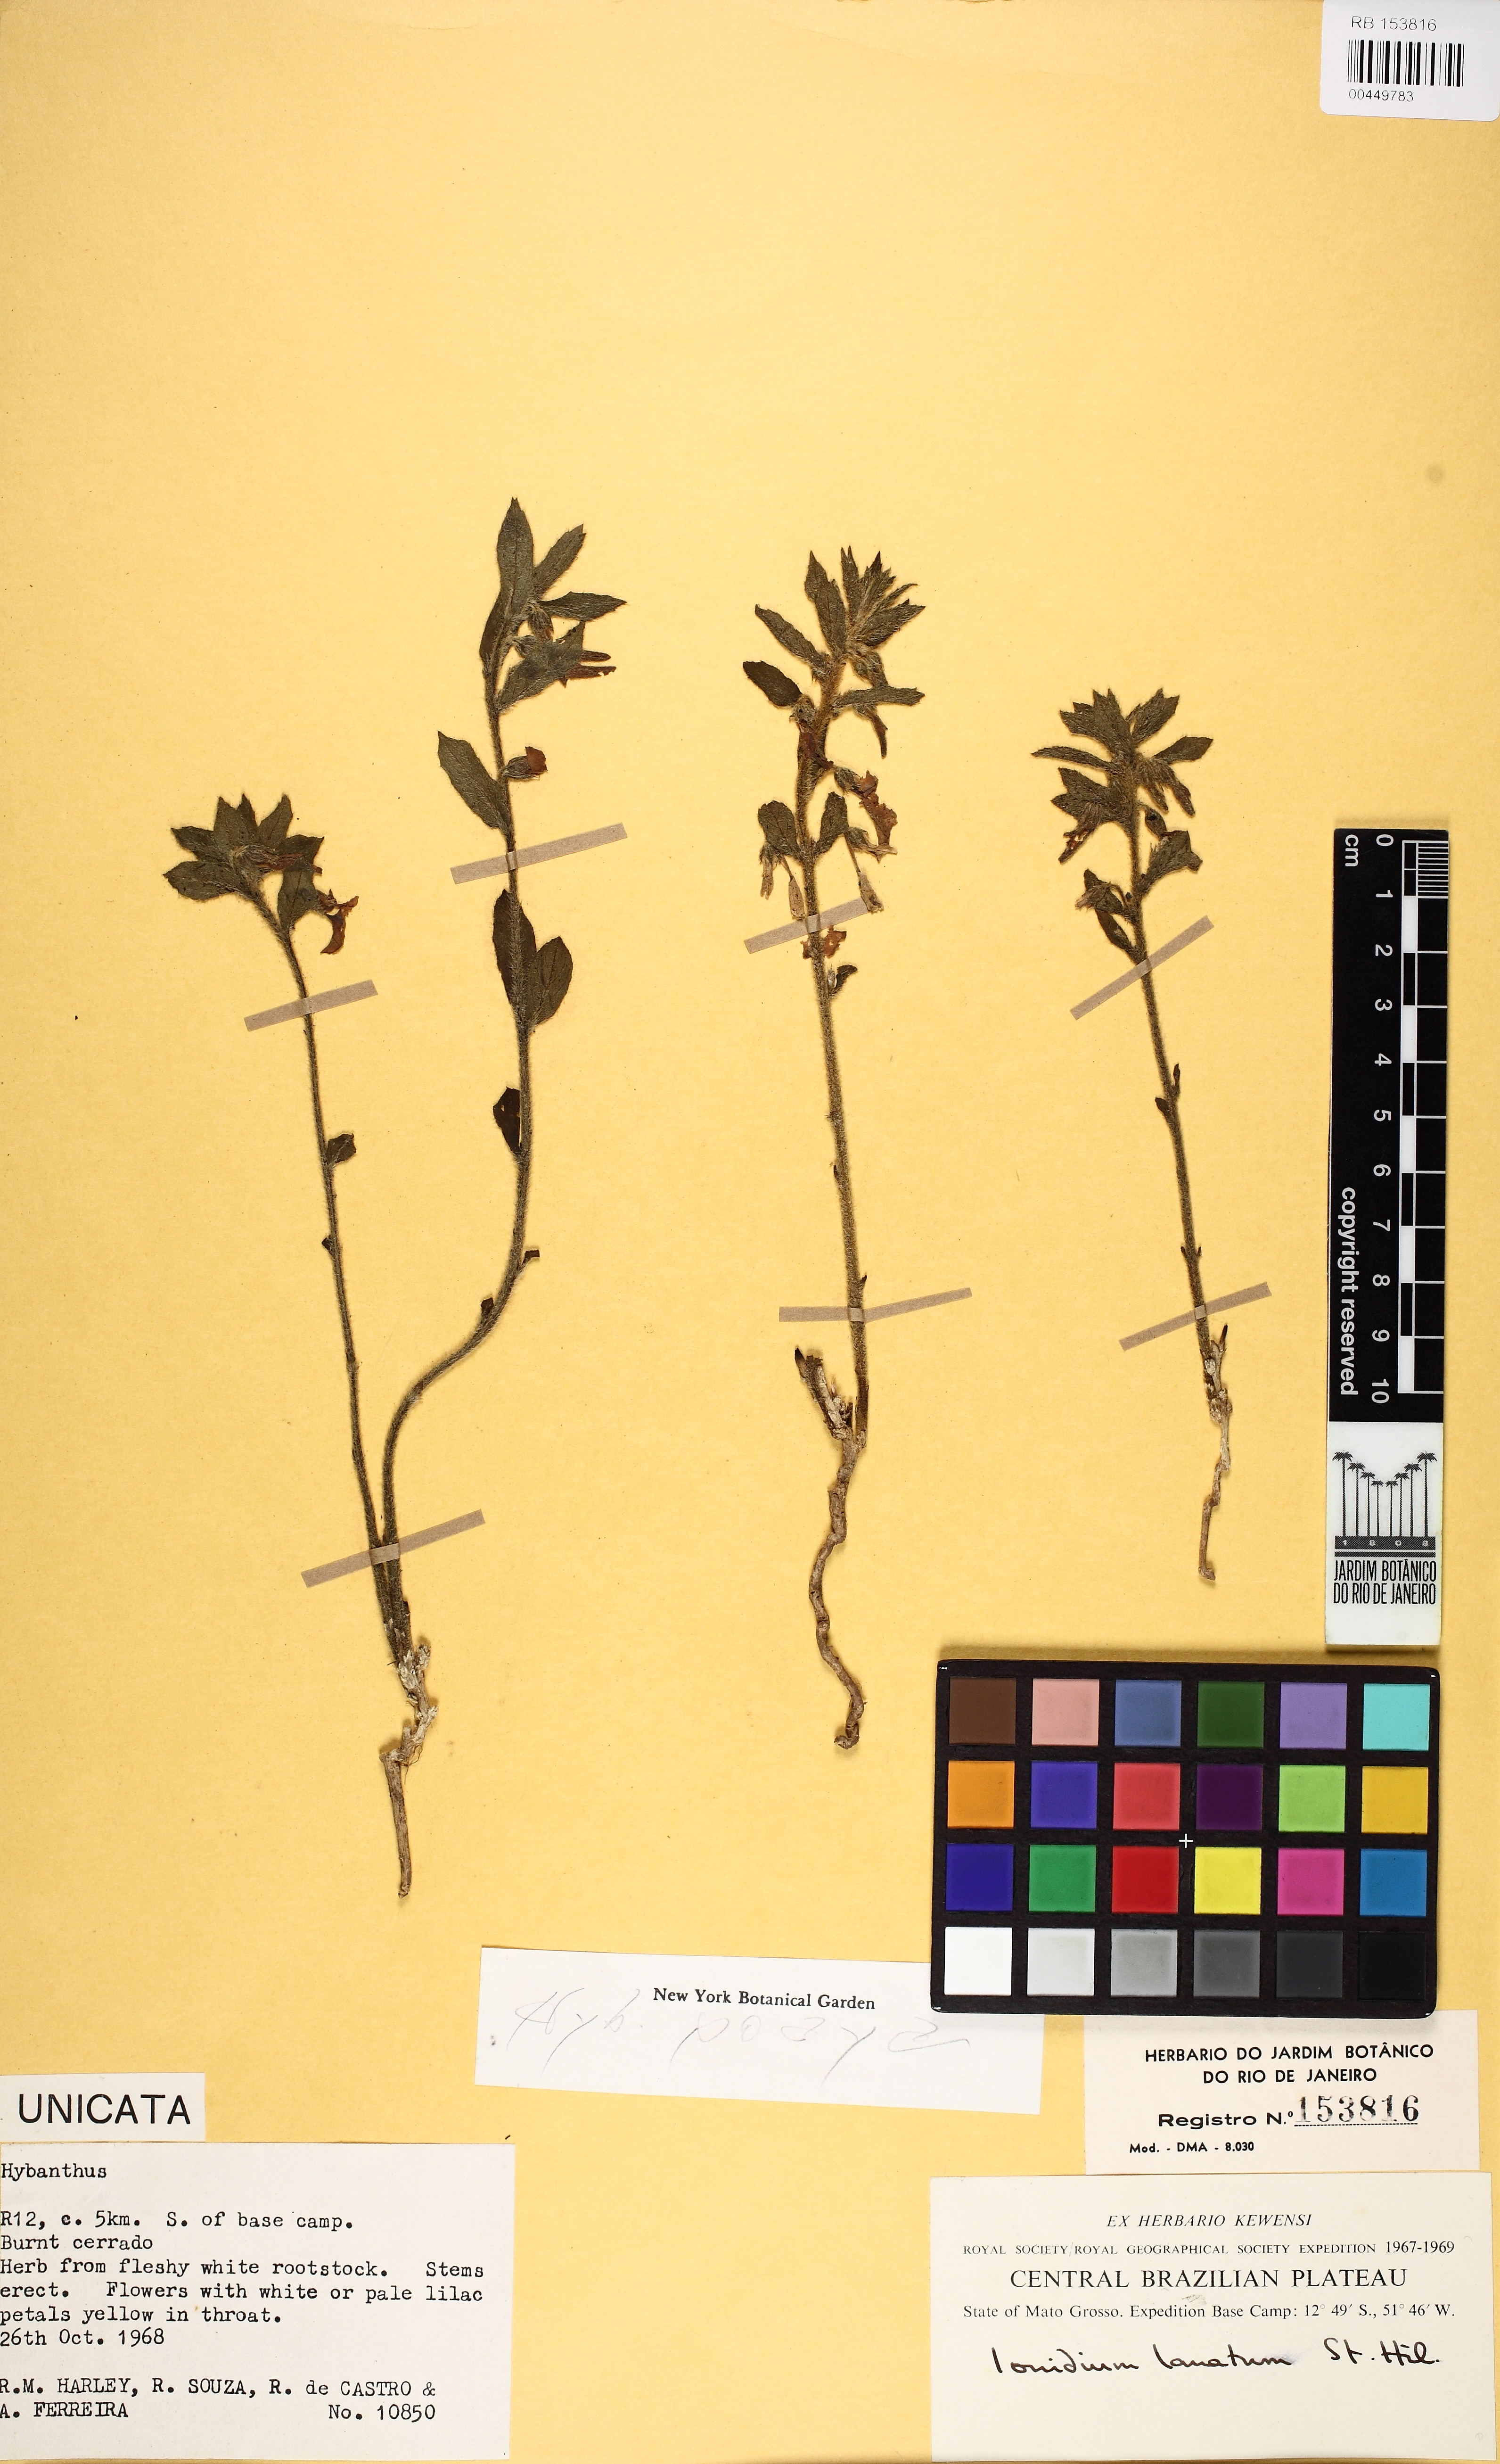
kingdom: Plantae
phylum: Tracheophyta
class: Magnoliopsida
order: Malpighiales
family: Violaceae
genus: Pombalia
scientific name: Pombalia poaya
